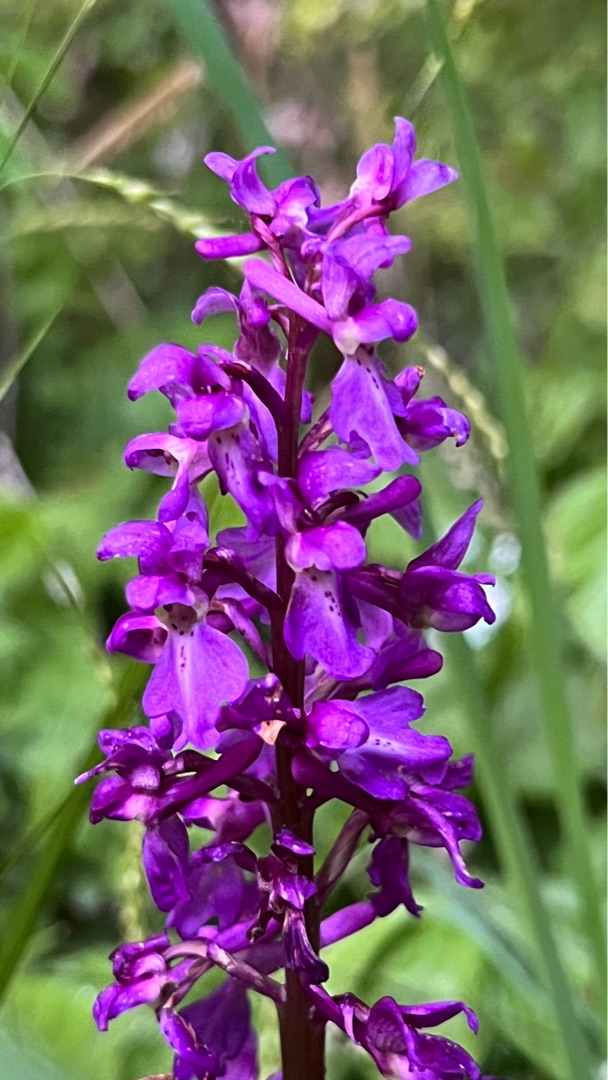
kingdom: Plantae
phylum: Tracheophyta
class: Liliopsida
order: Asparagales
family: Orchidaceae
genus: Orchis
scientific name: Orchis mascula
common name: Tyndakset gøgeurt
